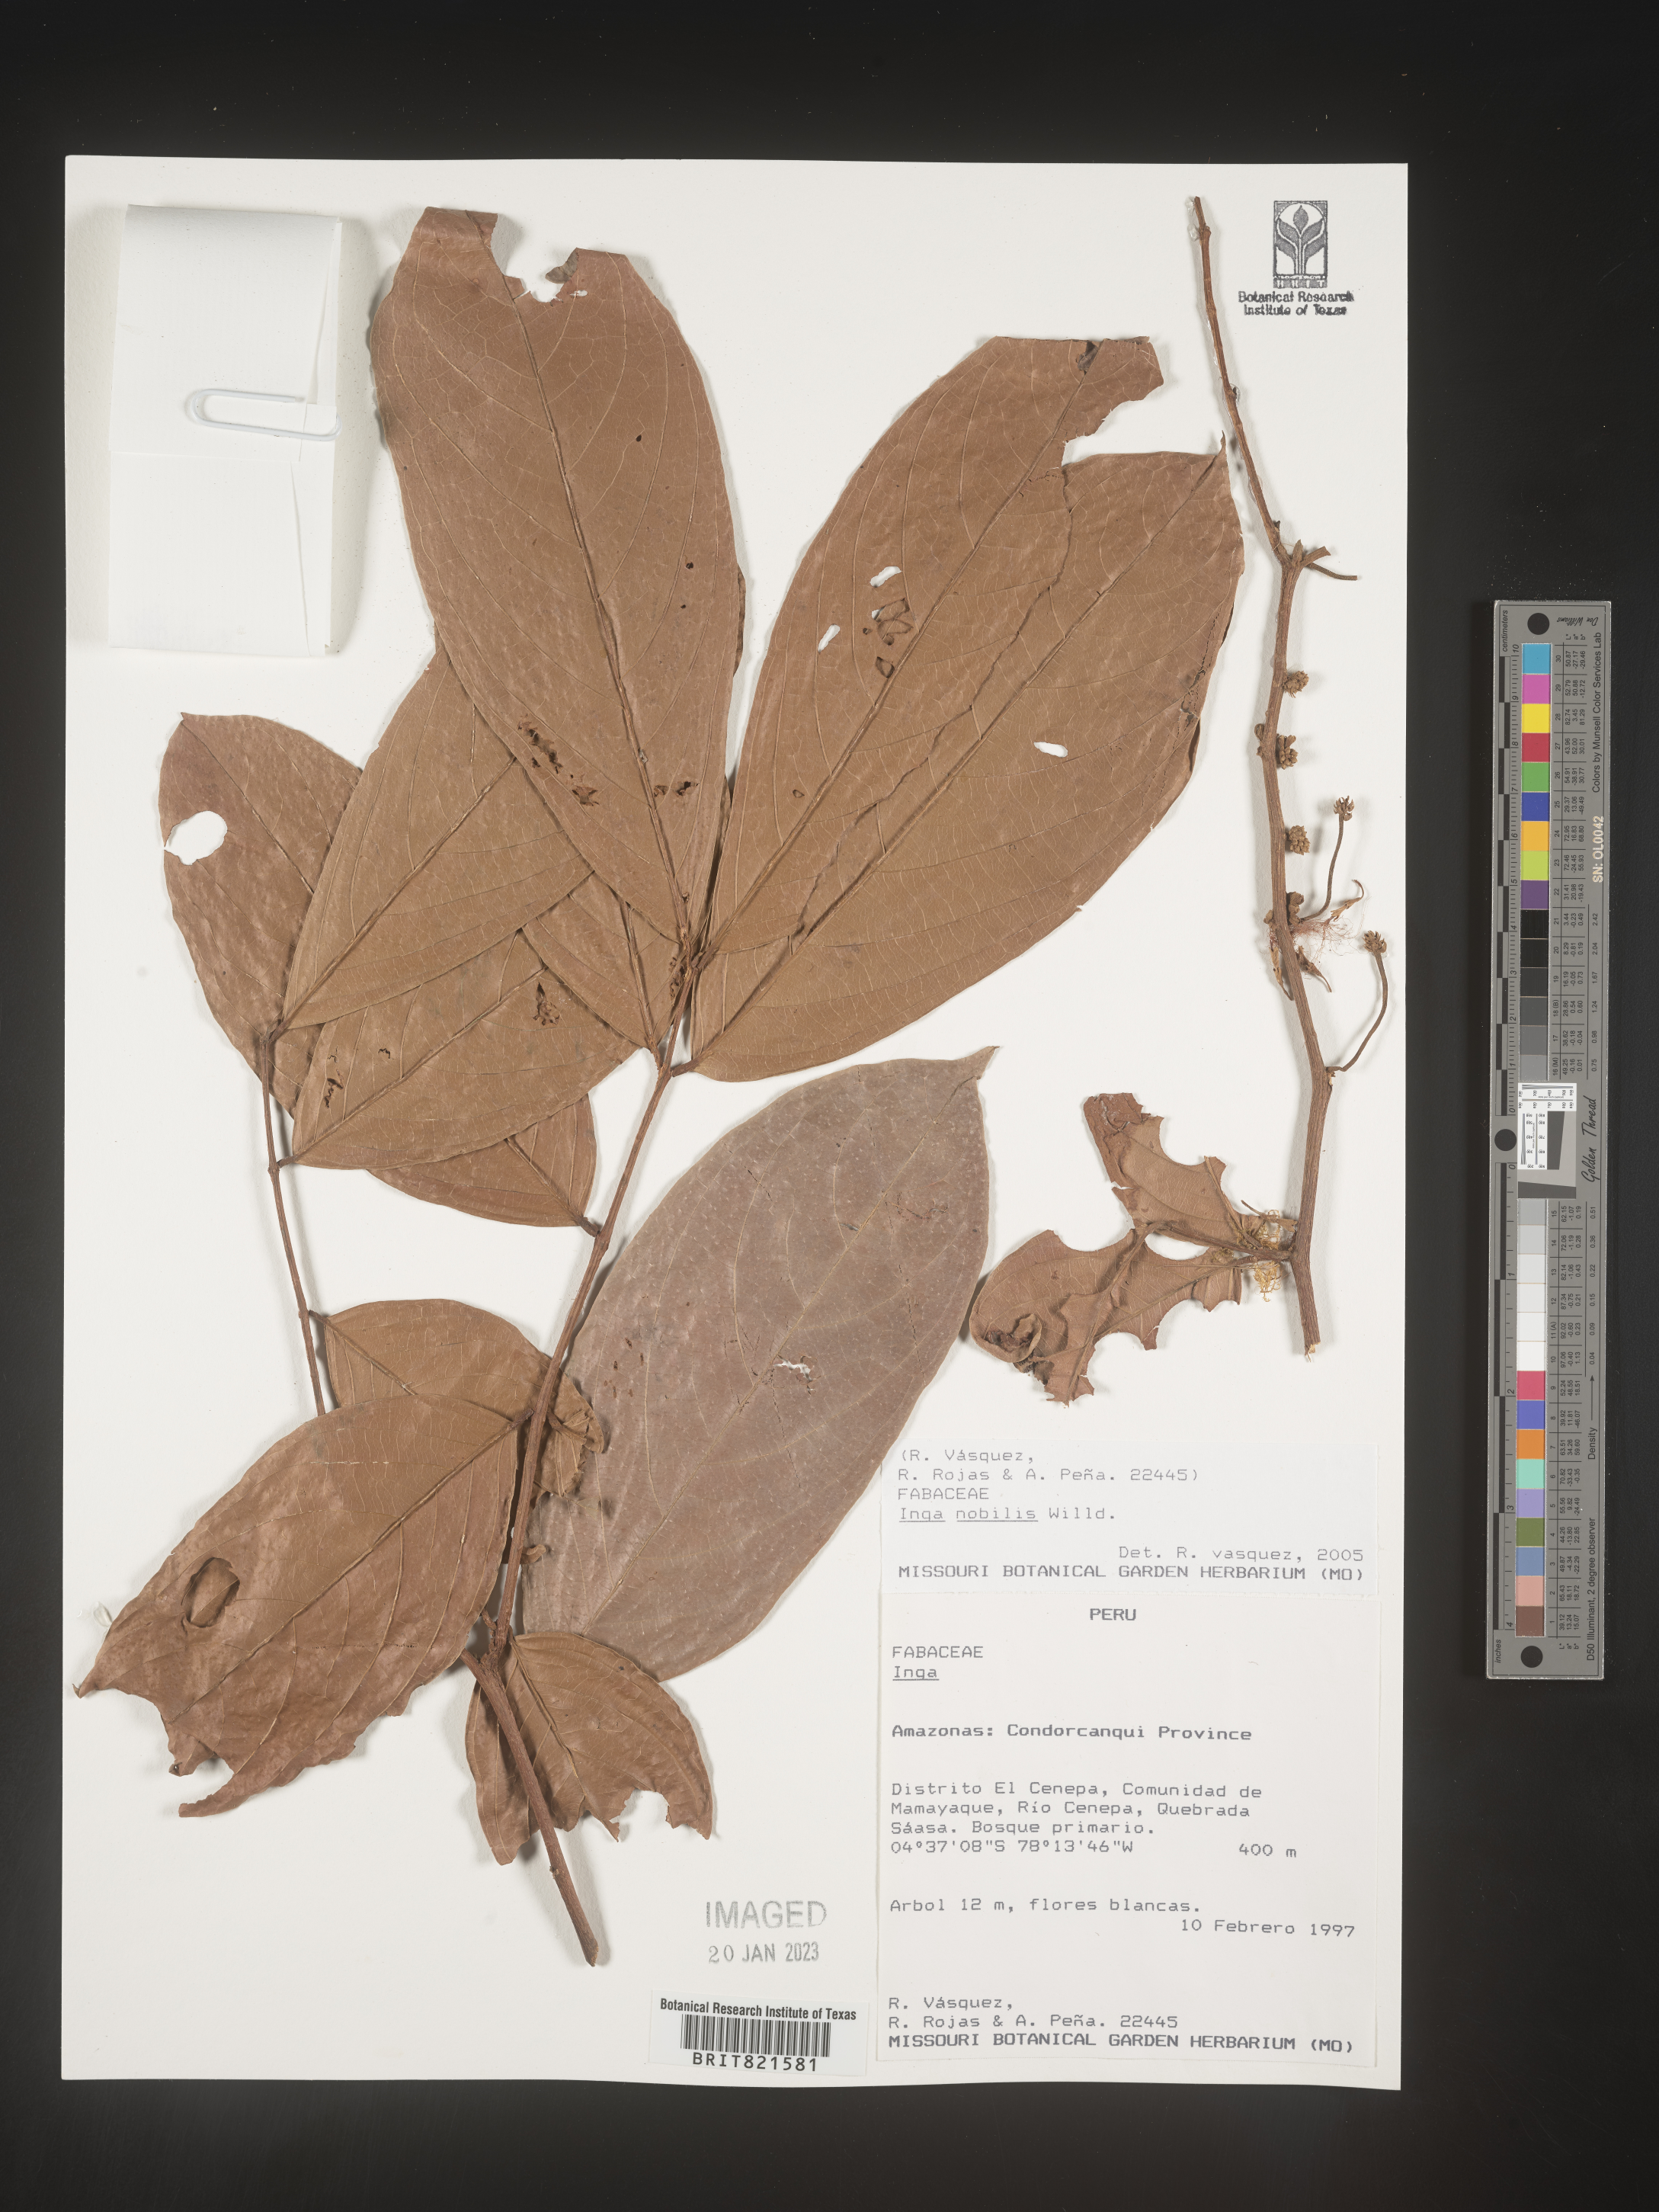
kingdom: Plantae
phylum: Tracheophyta
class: Magnoliopsida
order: Fabales
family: Fabaceae
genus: Inga
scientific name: Inga
